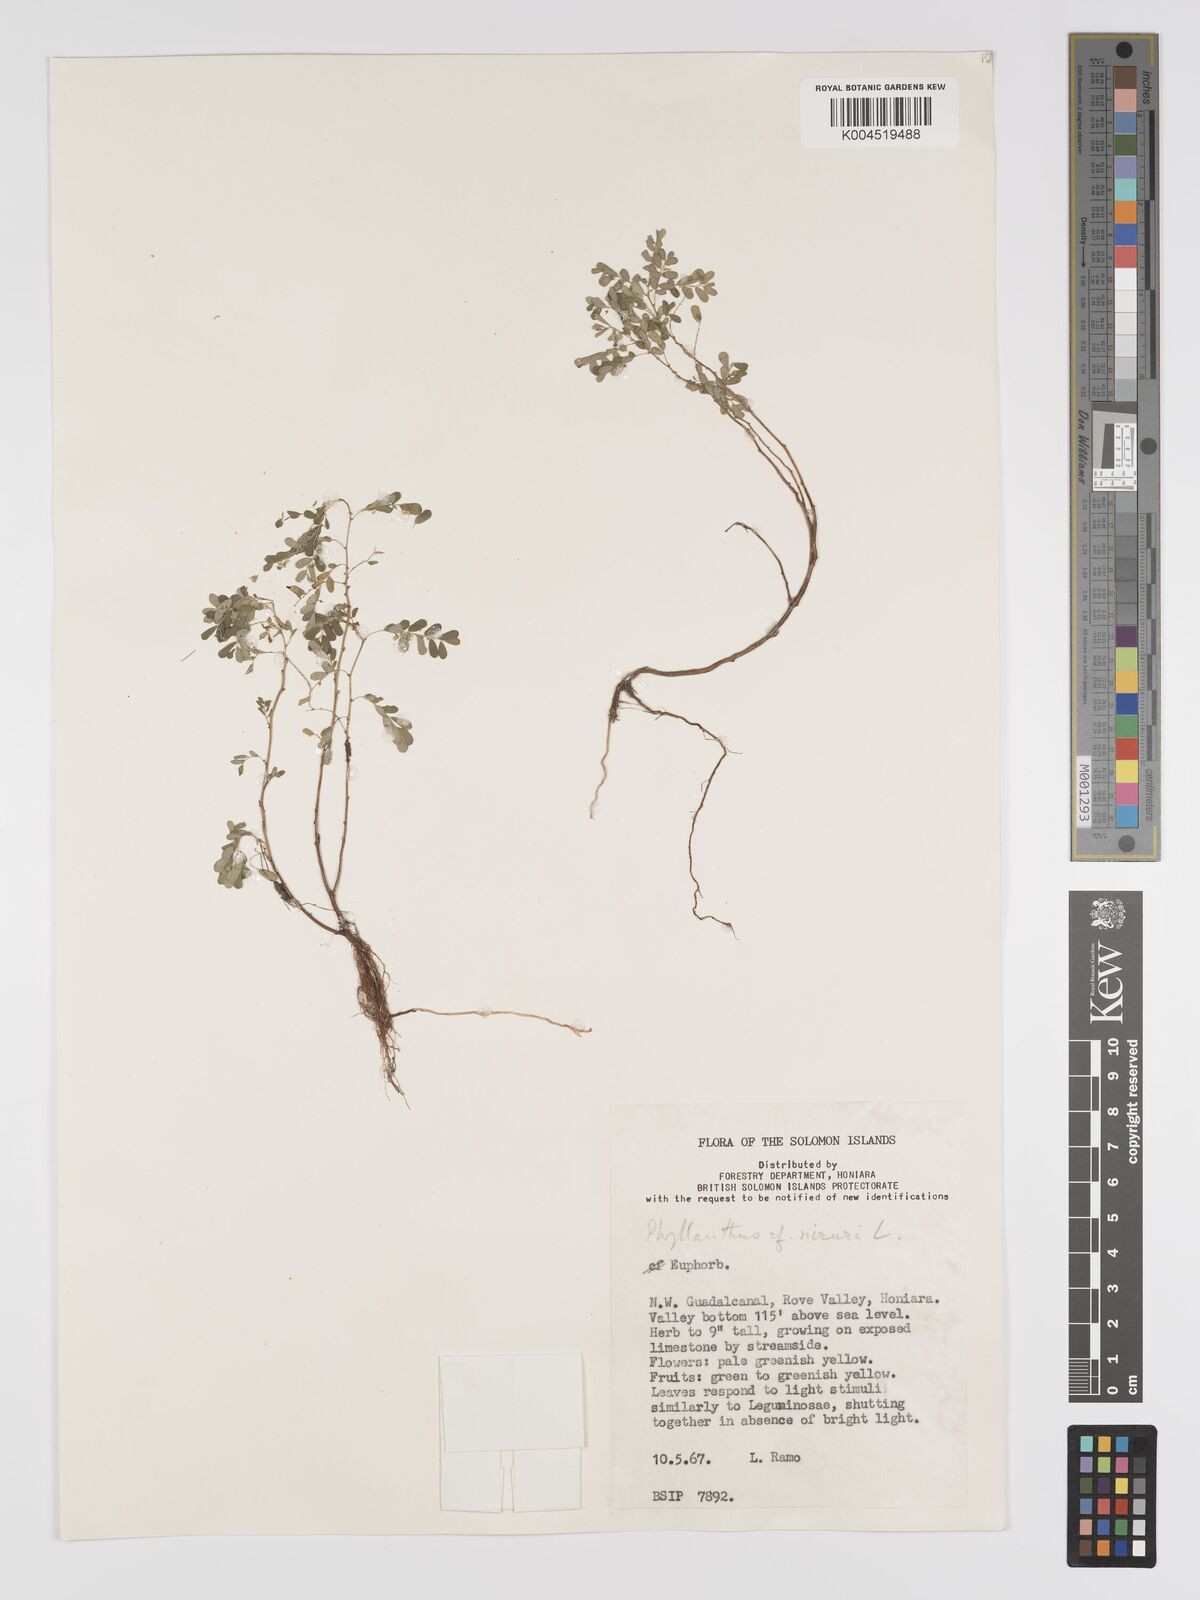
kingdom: Plantae
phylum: Tracheophyta
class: Magnoliopsida
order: Malpighiales
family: Phyllanthaceae
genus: Phyllanthus
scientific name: Phyllanthus niruri
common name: Niruri
